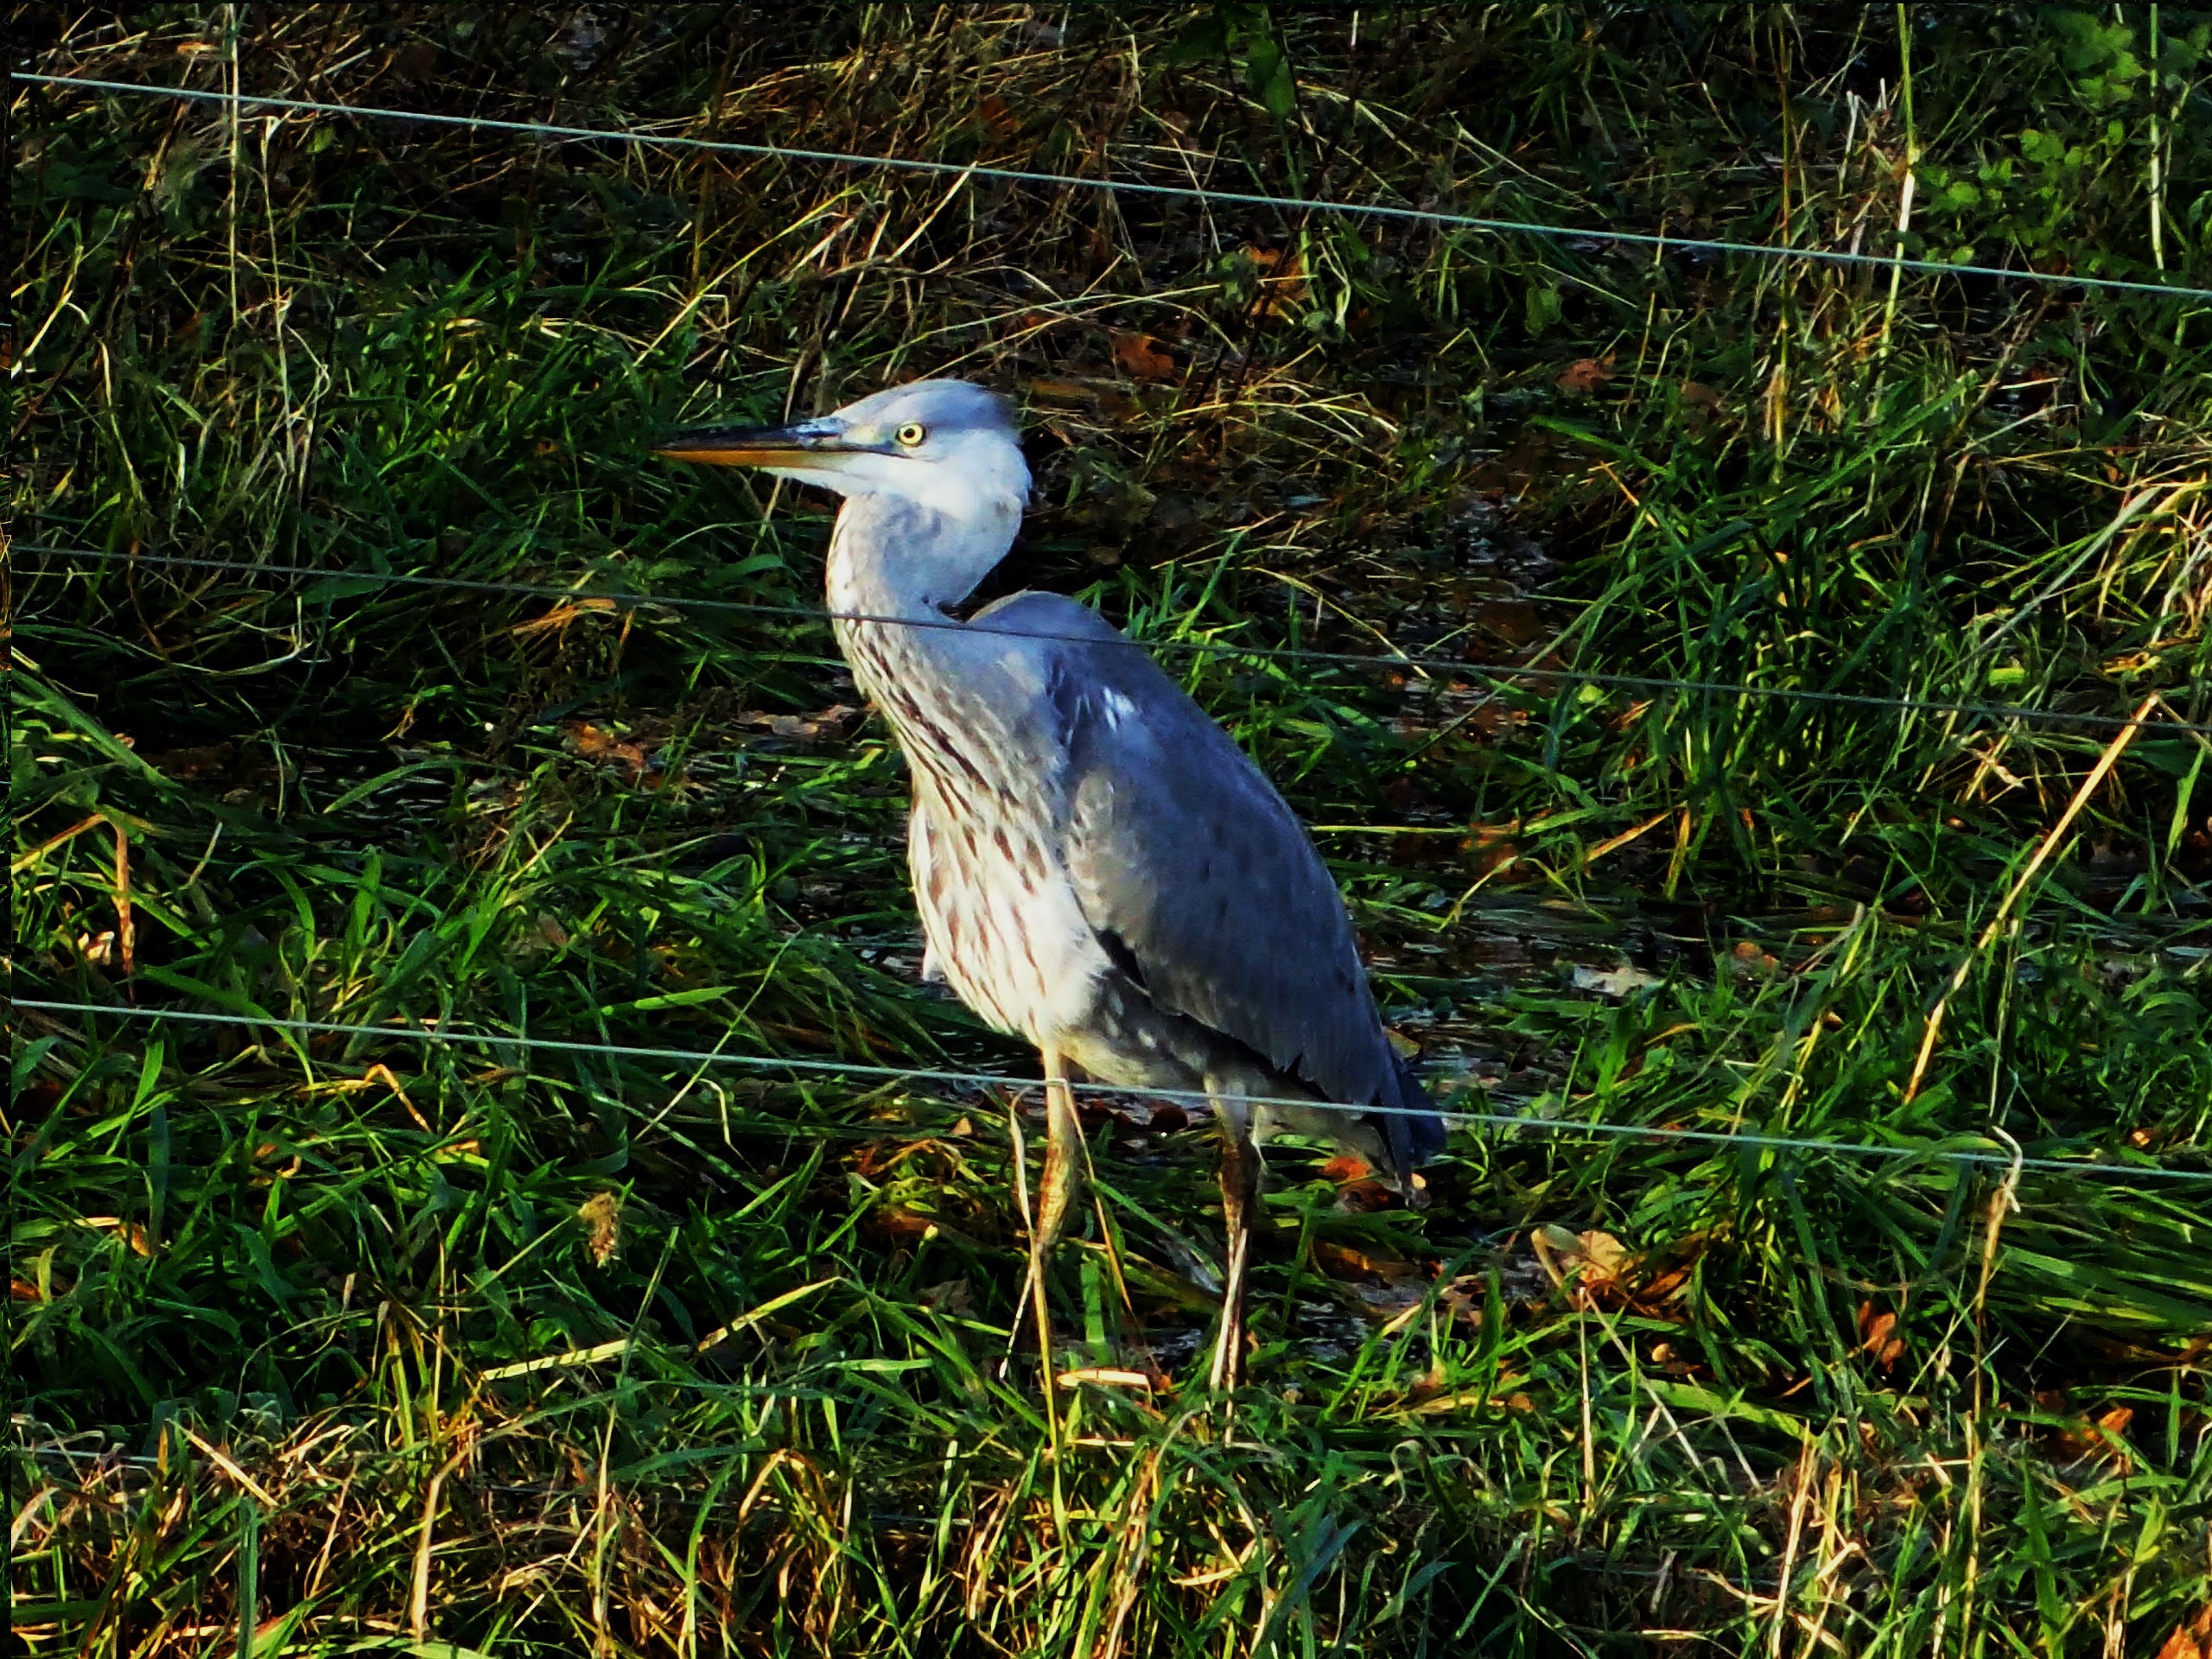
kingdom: Animalia
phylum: Chordata
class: Aves
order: Pelecaniformes
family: Ardeidae
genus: Ardea
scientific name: Ardea cinerea
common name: Fiskehejre
